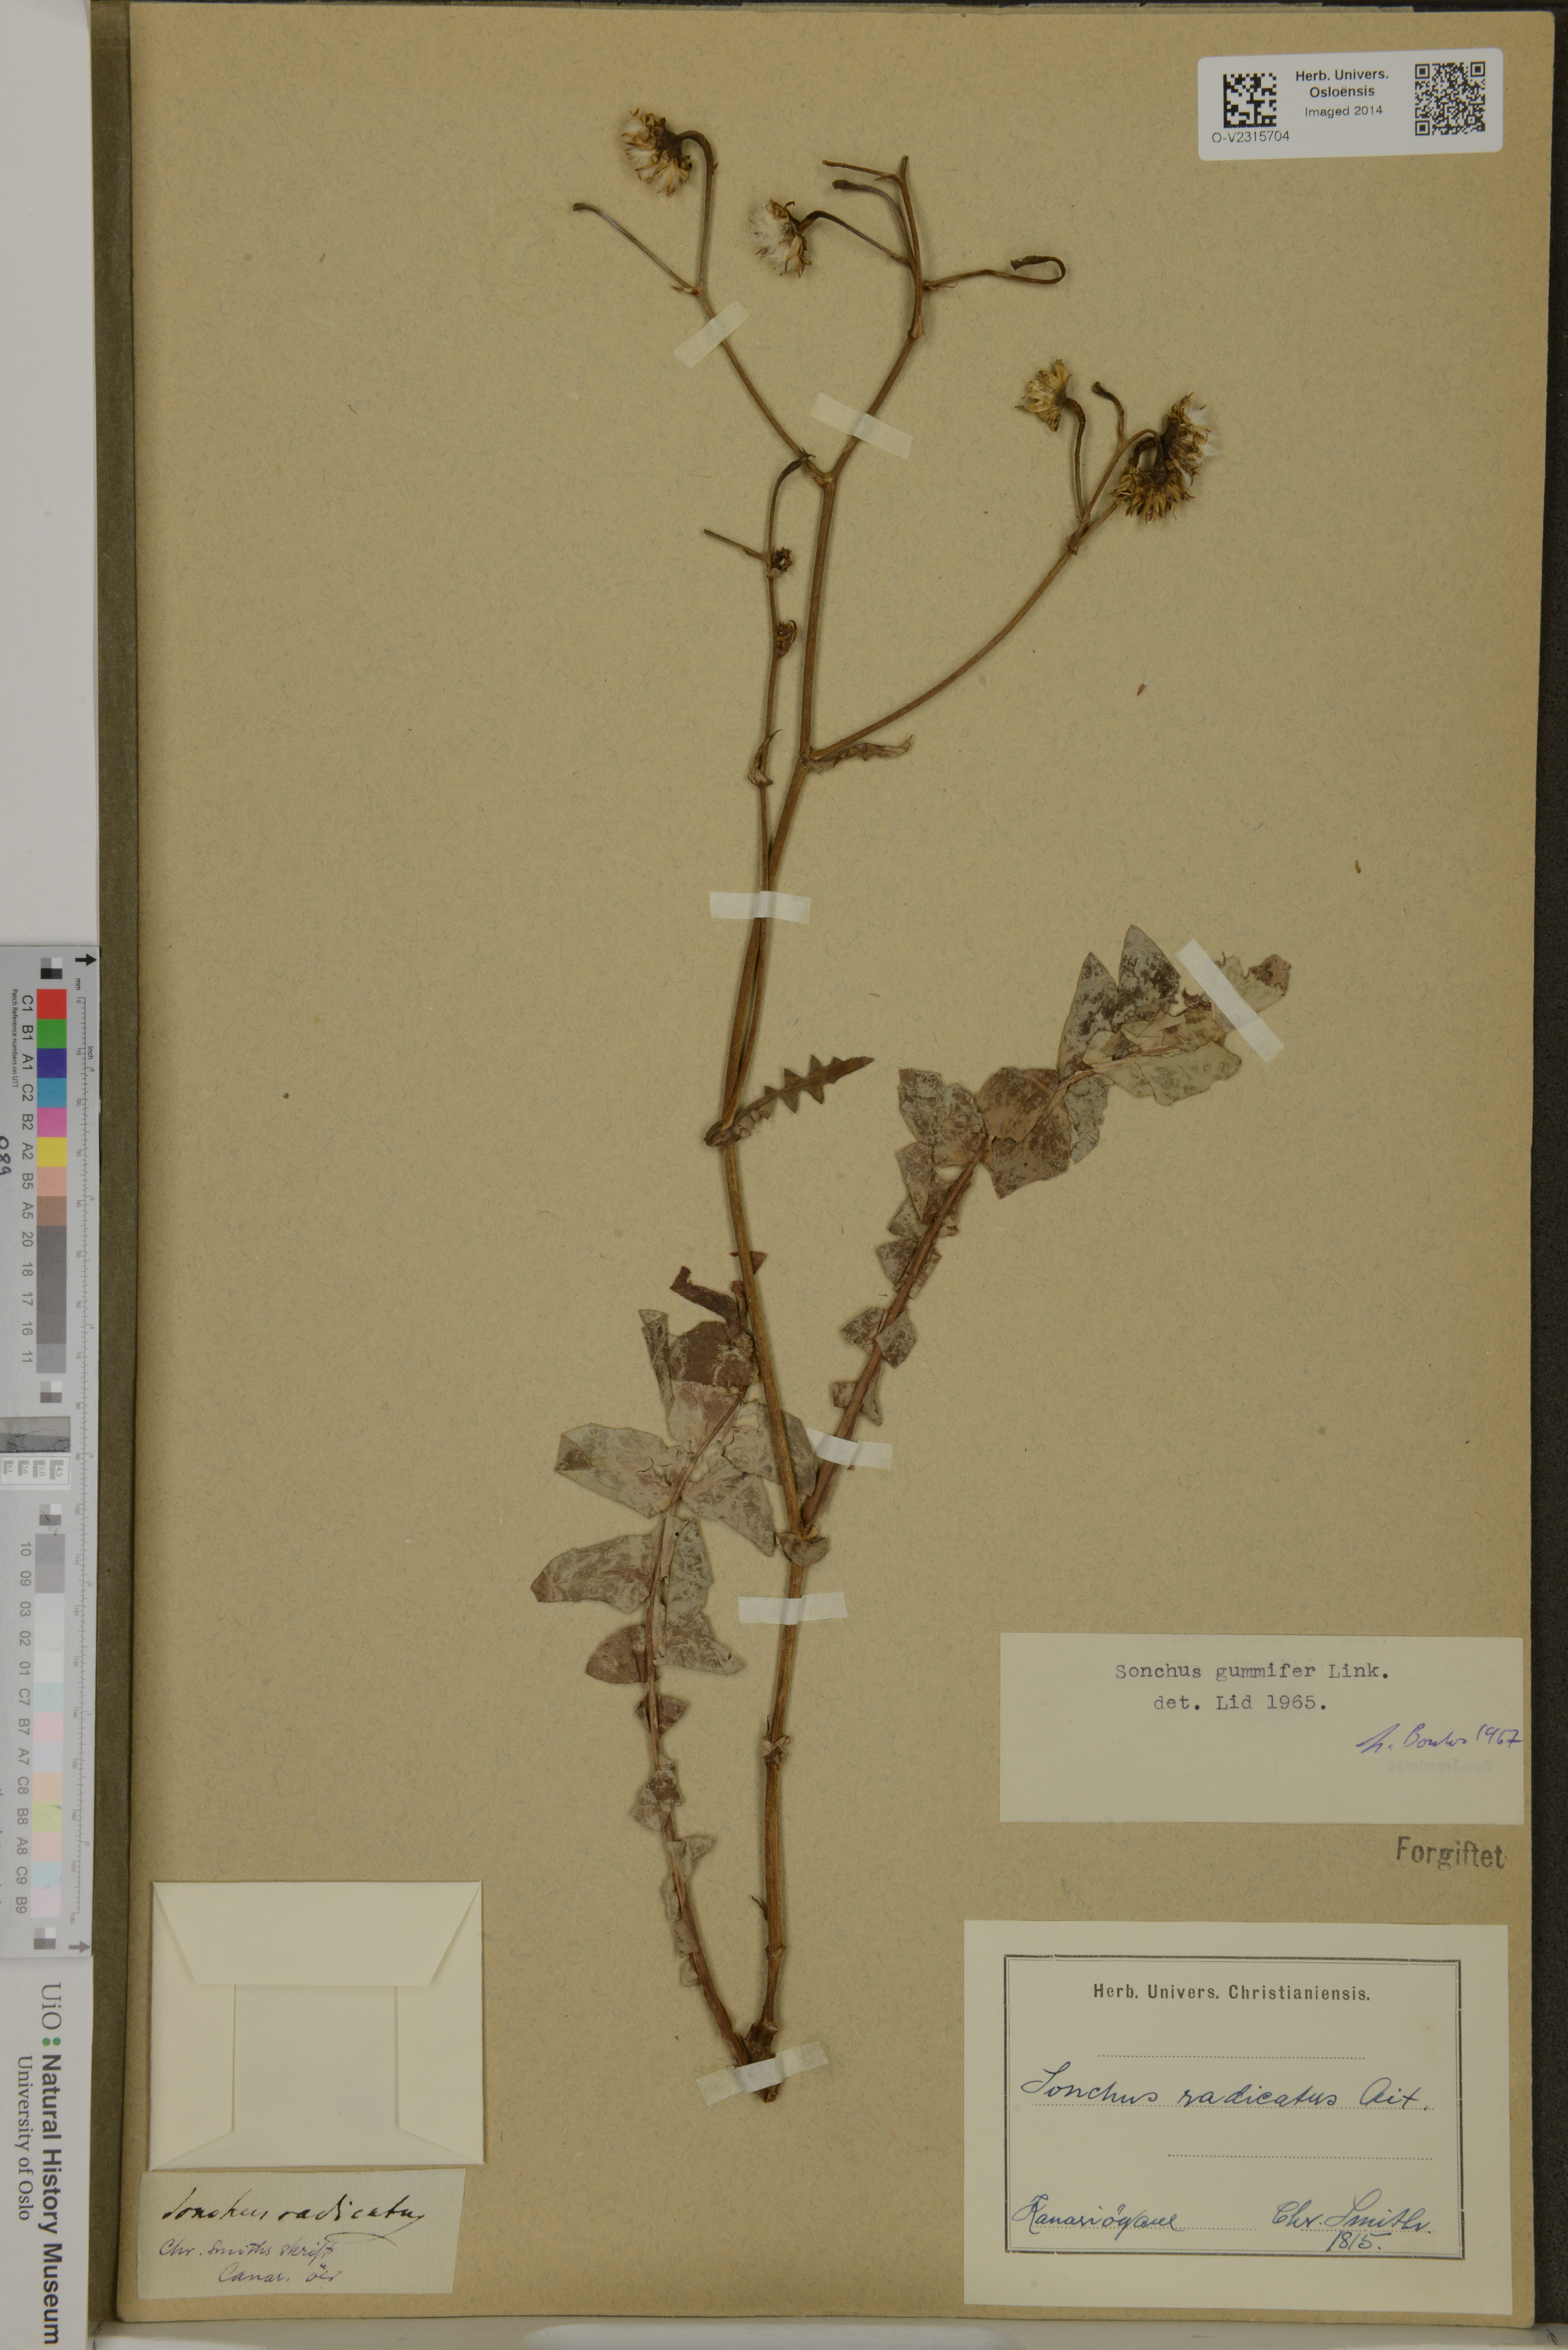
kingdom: Plantae
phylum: Tracheophyta
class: Magnoliopsida
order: Asterales
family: Asteraceae
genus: Sonchus
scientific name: Sonchus gummifer
